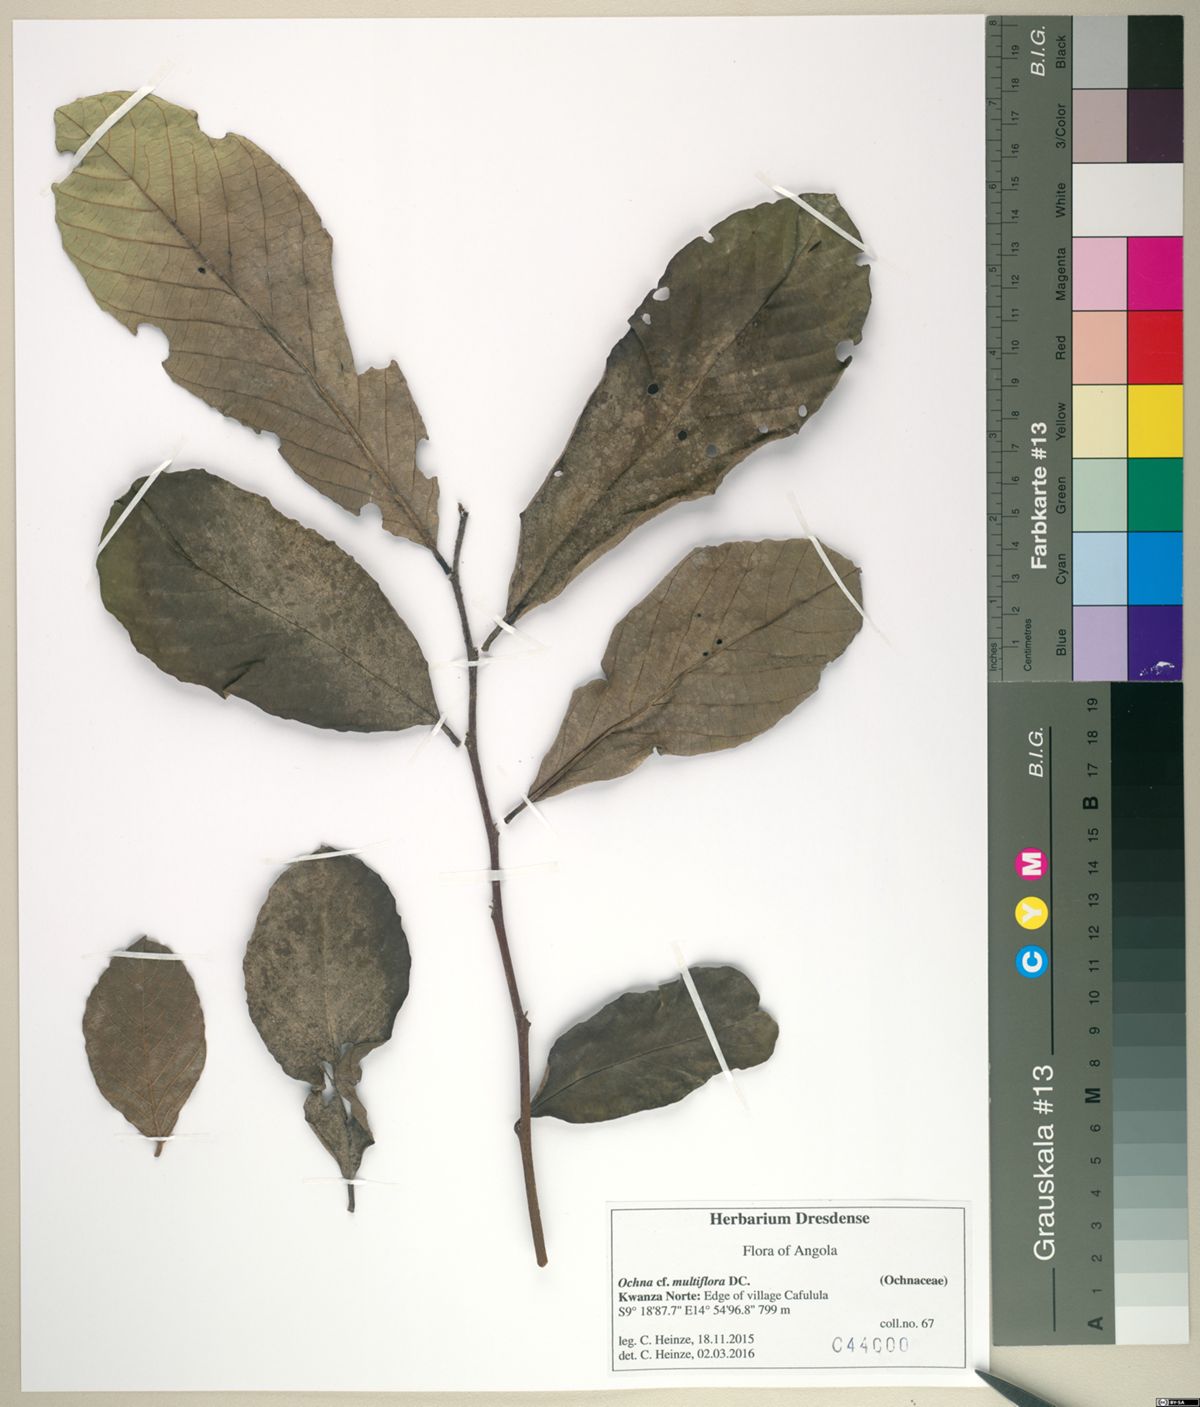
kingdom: Plantae
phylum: Tracheophyta
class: Magnoliopsida
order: Malpighiales
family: Ochnaceae
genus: Ochna
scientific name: Ochna multiflora
